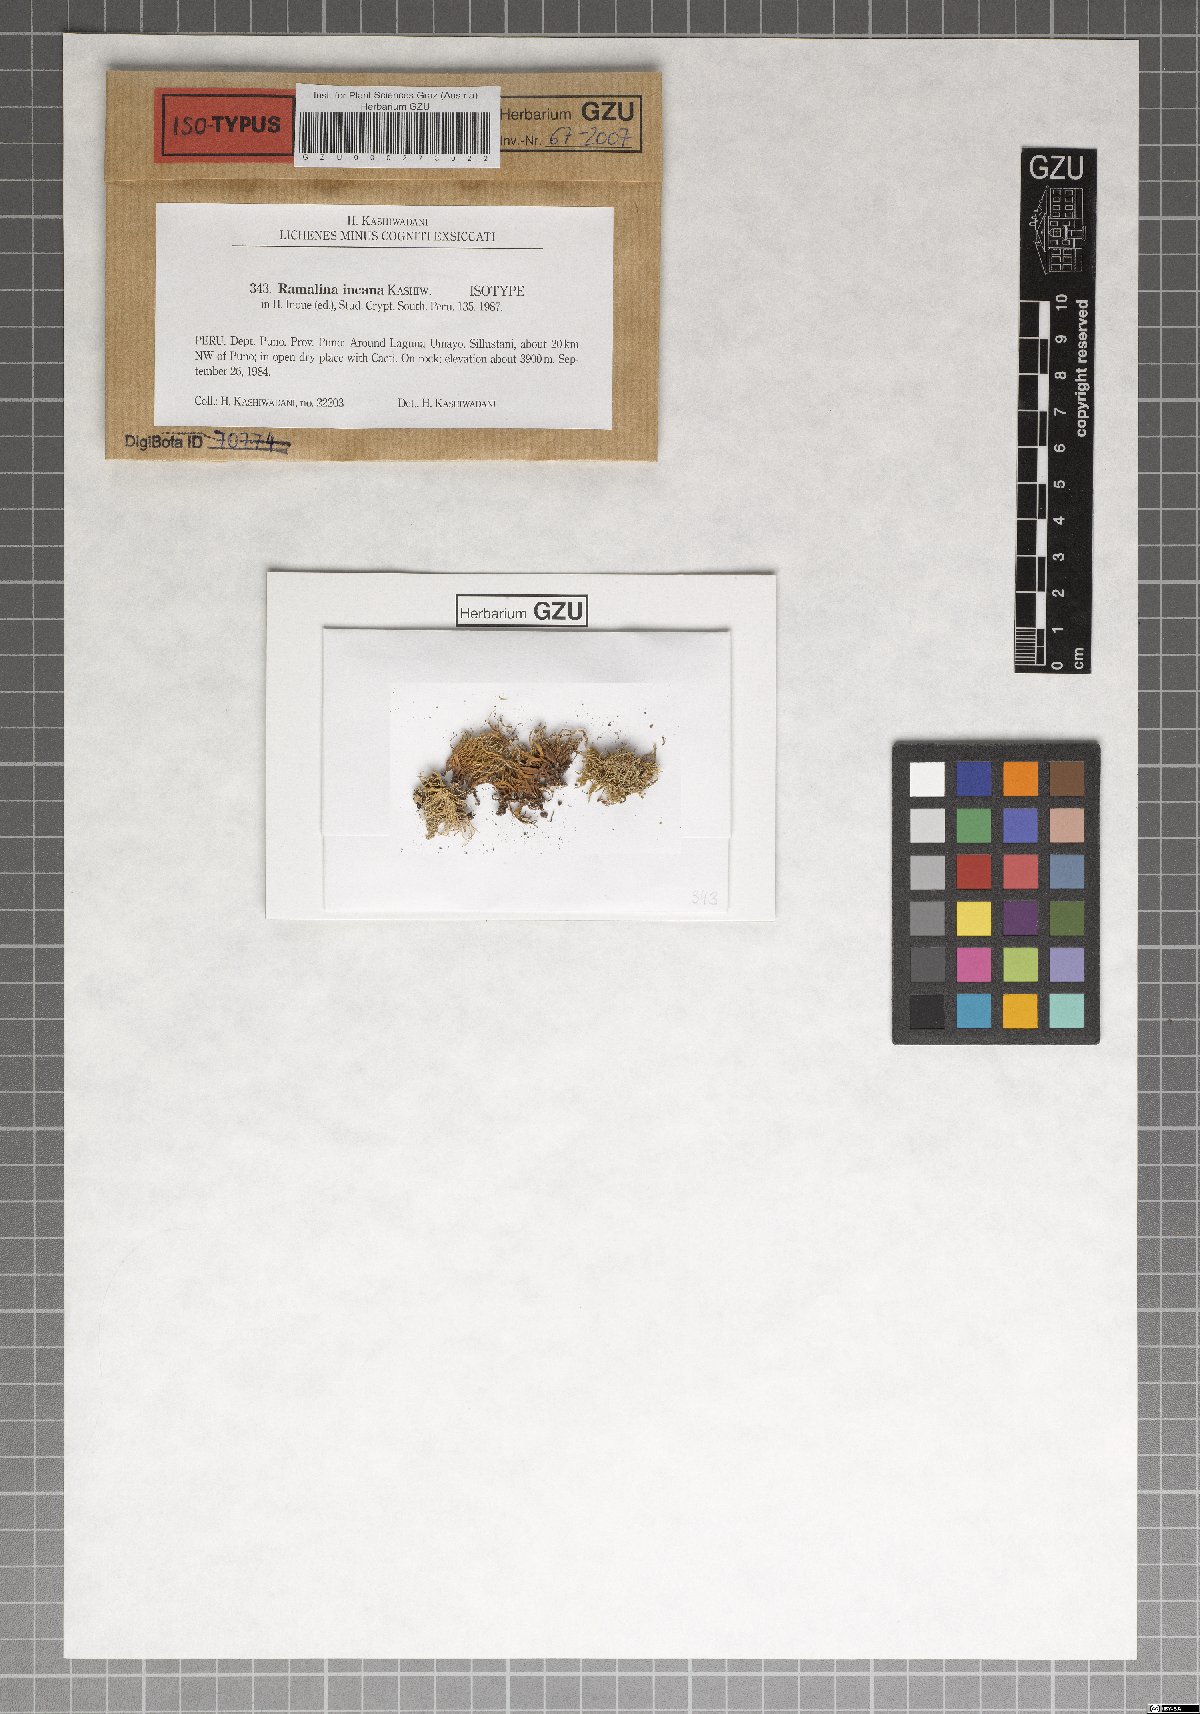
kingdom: Fungi
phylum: Ascomycota
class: Lecanoromycetes
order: Lecanorales
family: Ramalinaceae
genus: Ramalina
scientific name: Ramalina incana
